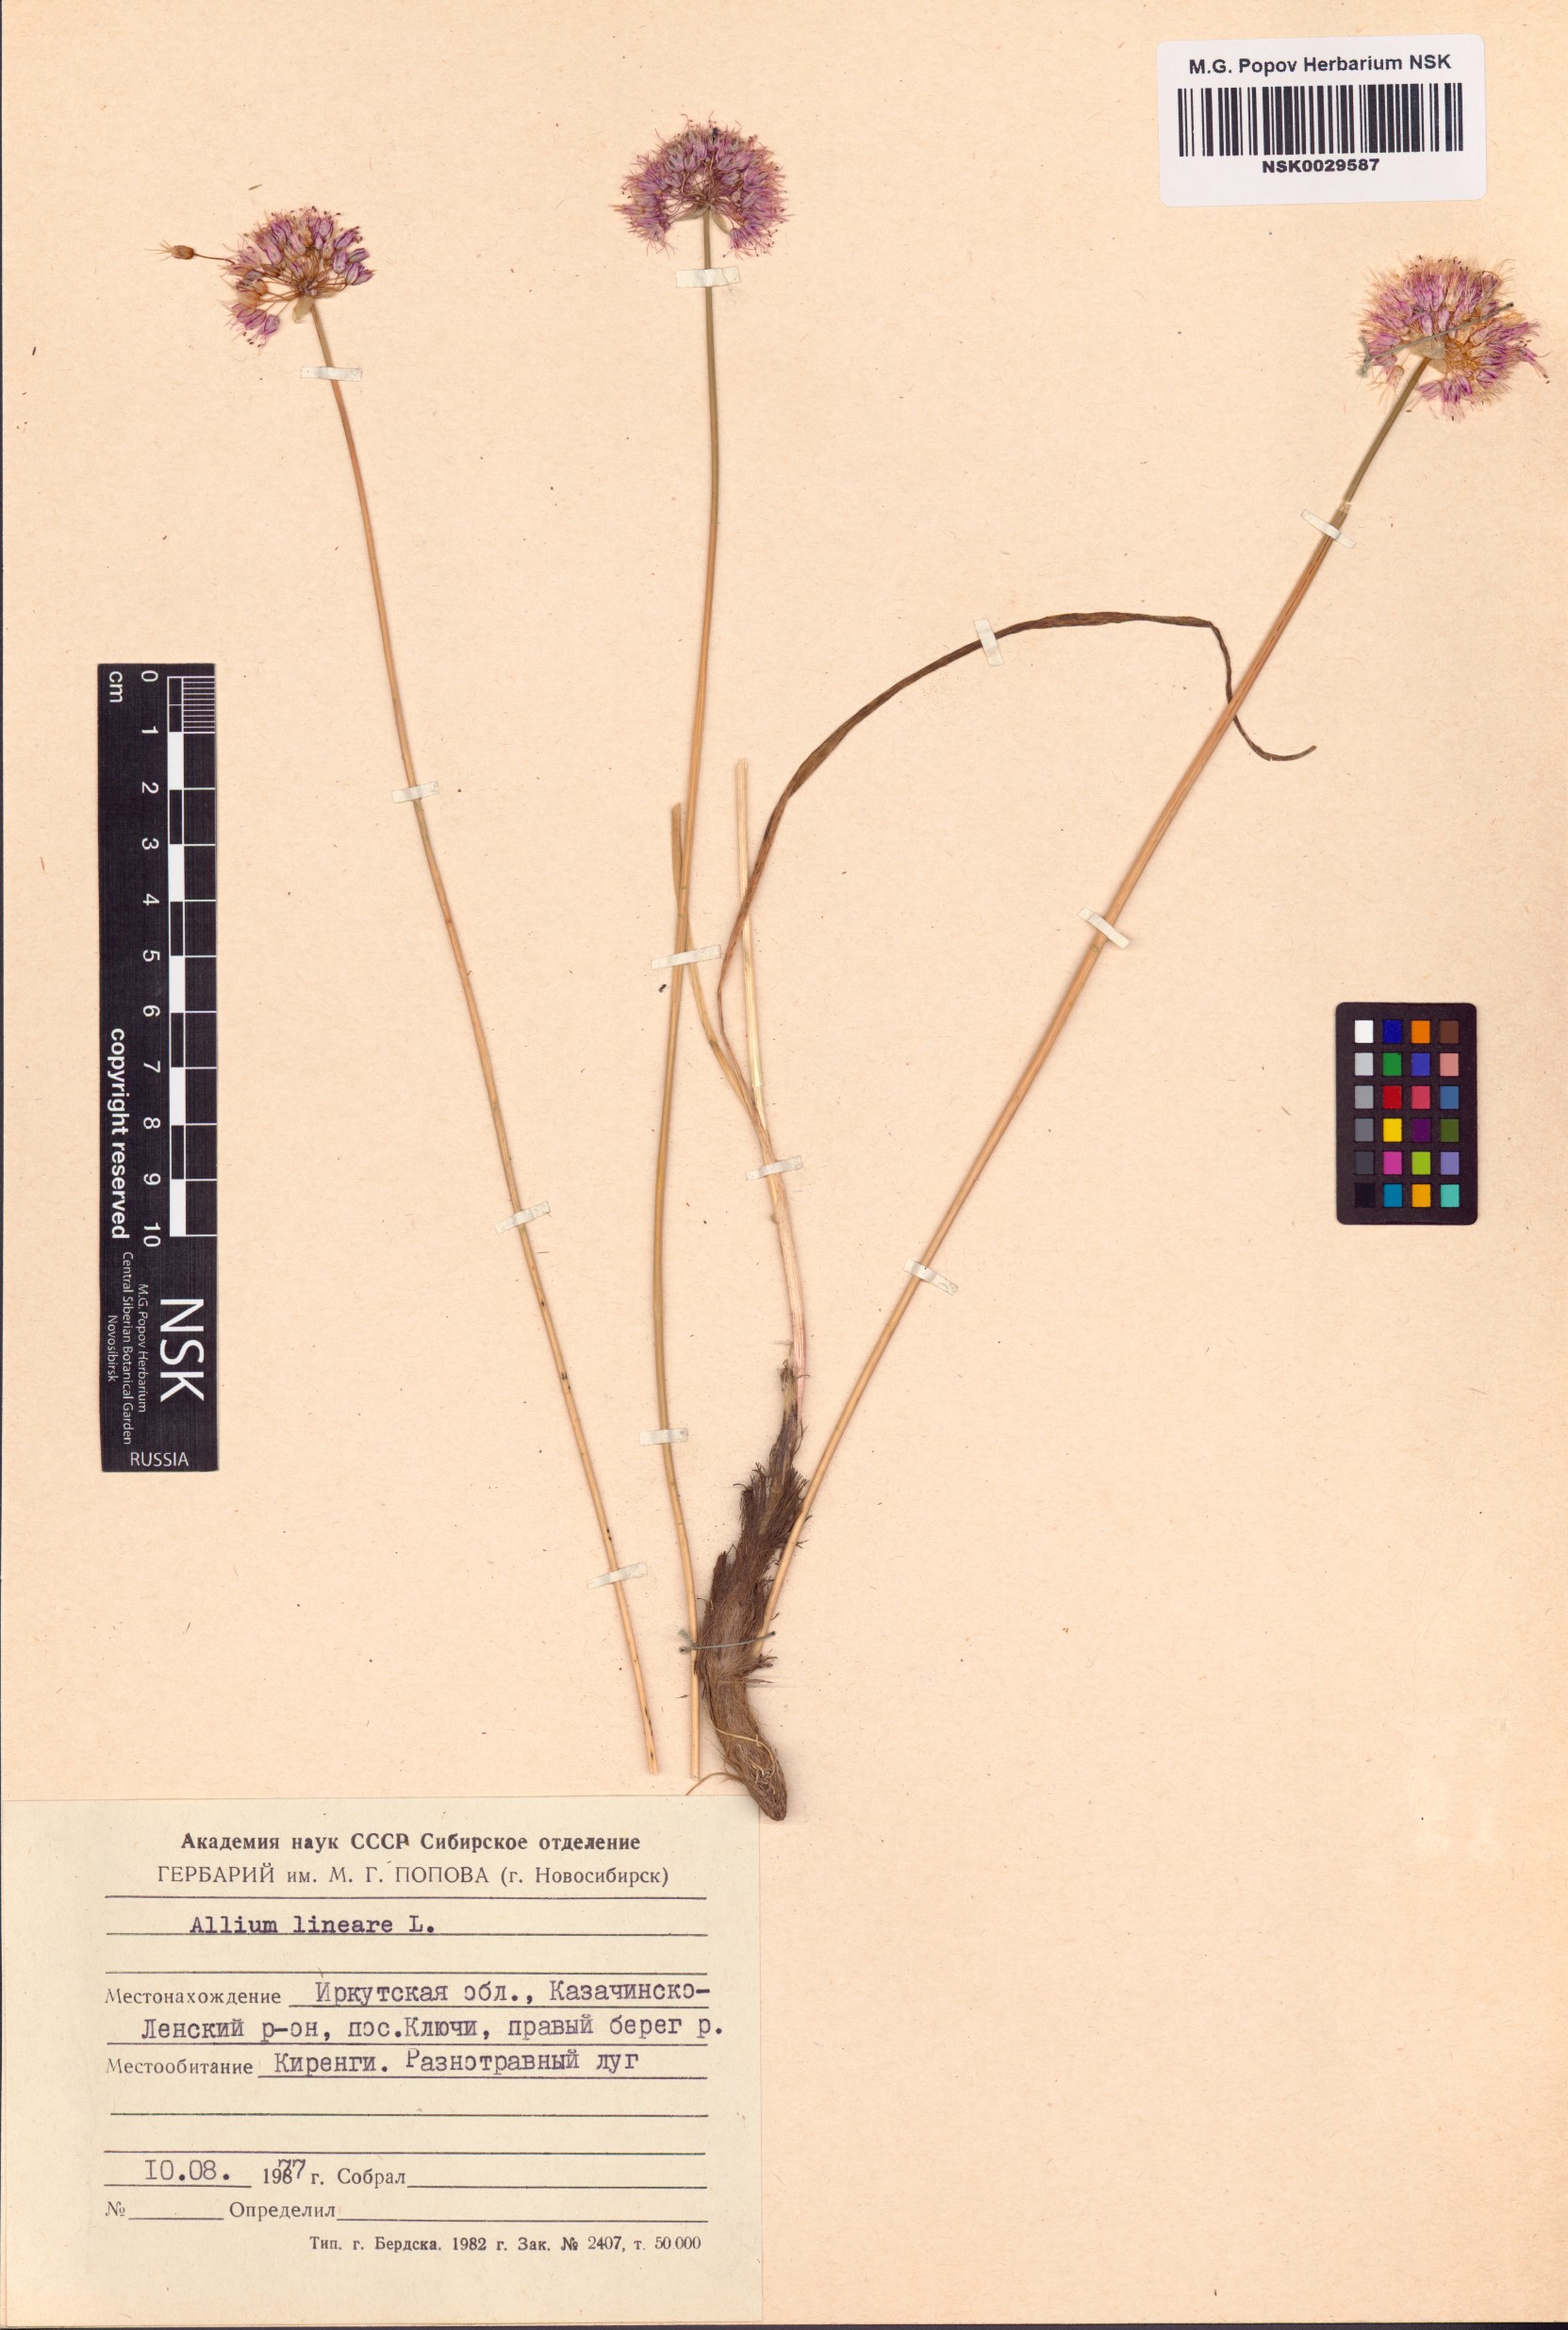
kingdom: Plantae
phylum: Tracheophyta
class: Liliopsida
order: Asparagales
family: Amaryllidaceae
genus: Allium
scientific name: Allium lineare
